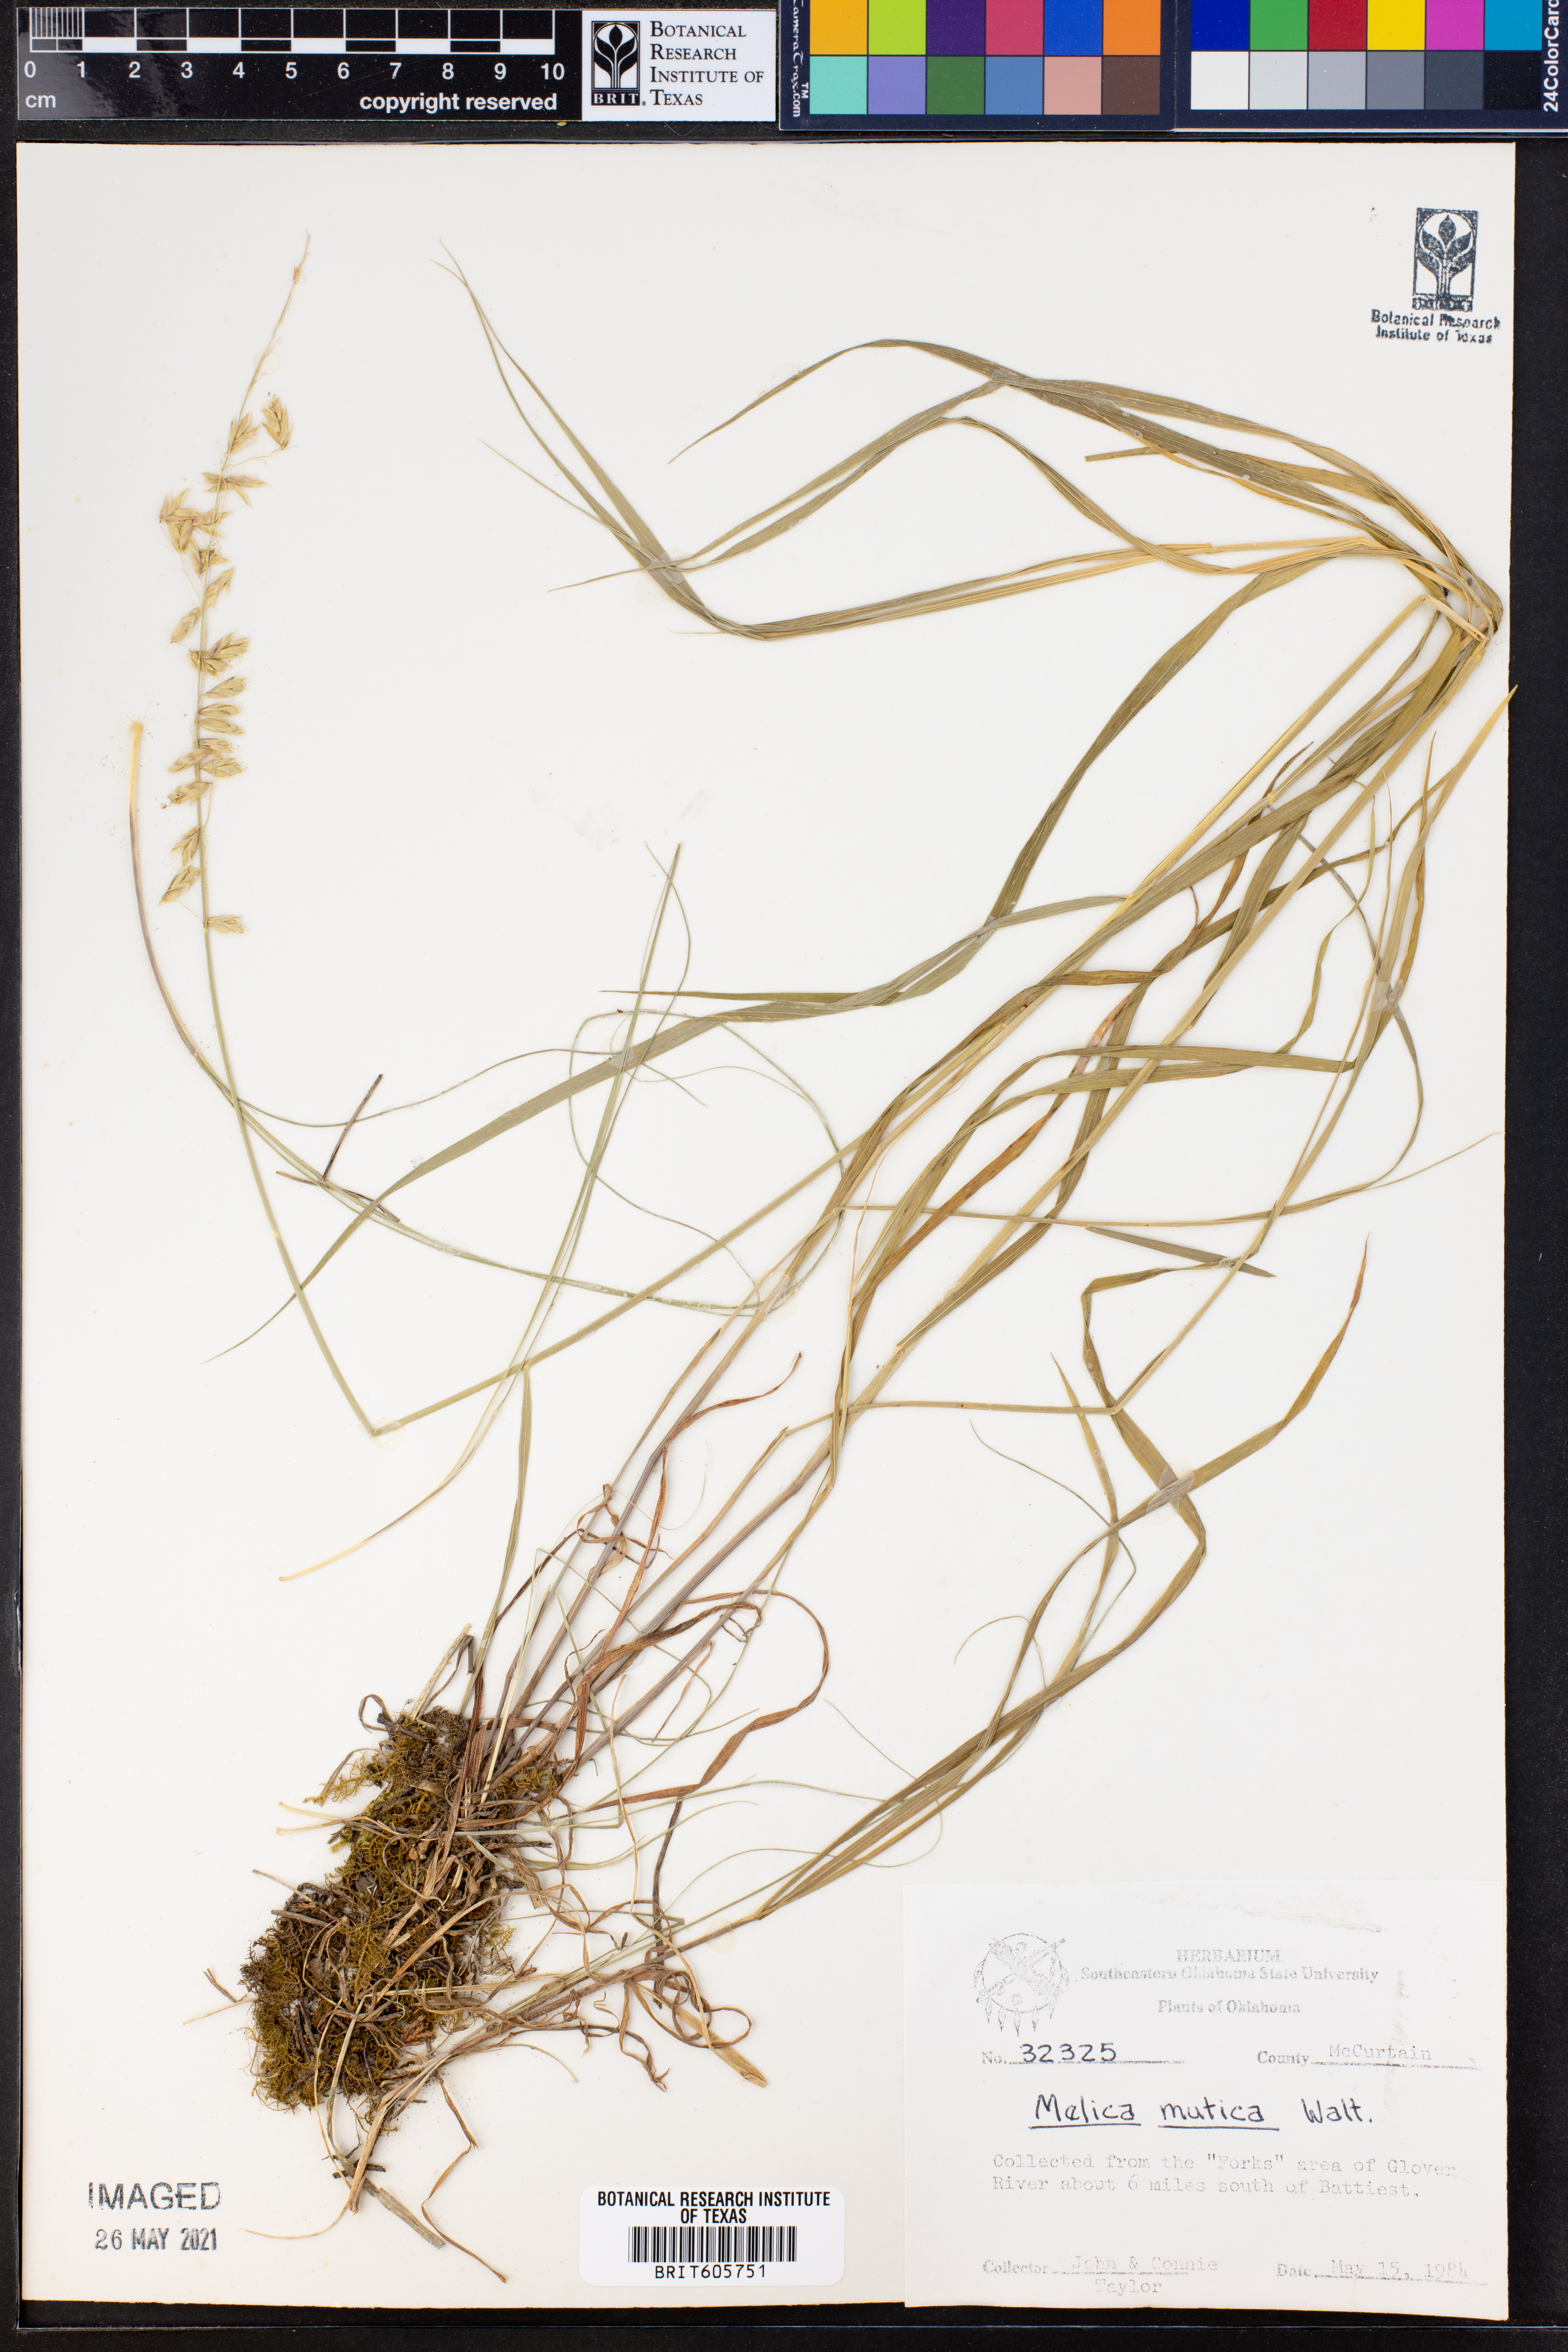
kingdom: Plantae
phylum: Tracheophyta
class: Liliopsida
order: Poales
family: Poaceae
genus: Melica
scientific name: Melica mutica
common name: Two-flower melic
